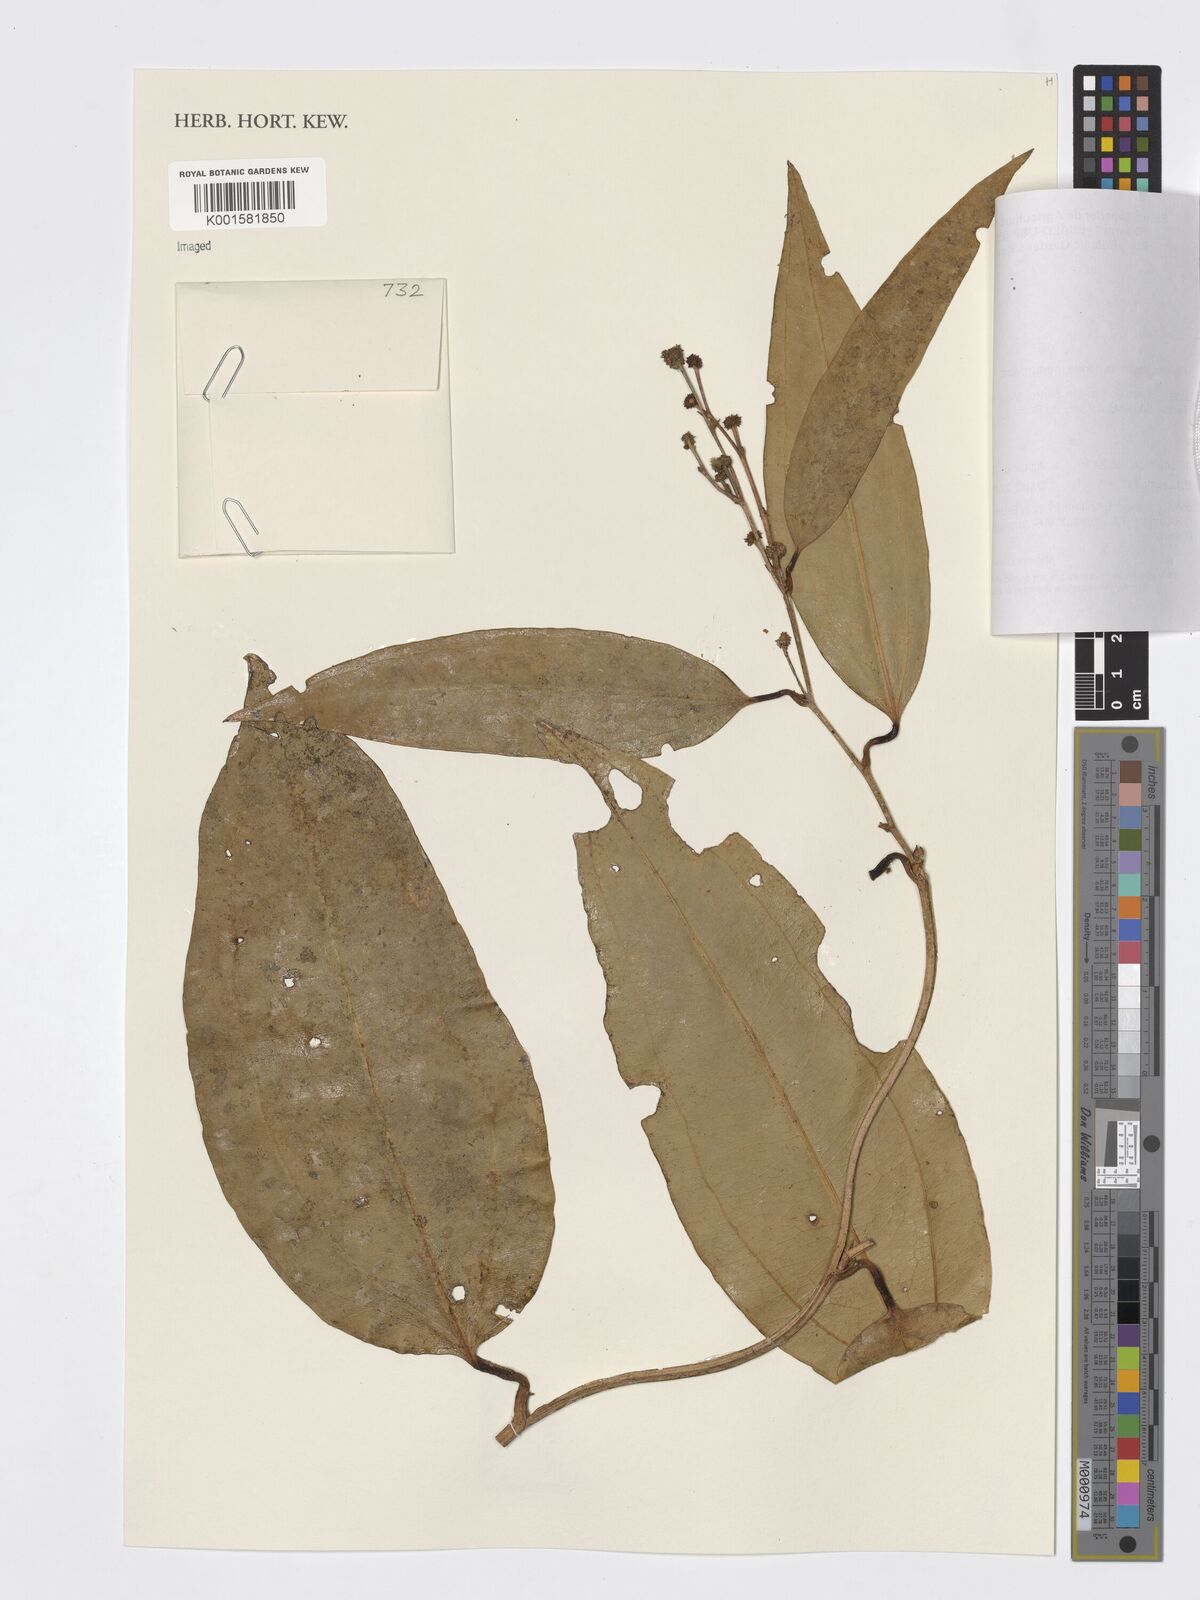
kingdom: Plantae
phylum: Tracheophyta
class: Liliopsida
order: Liliales
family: Smilacaceae
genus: Smilax
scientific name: Smilax
